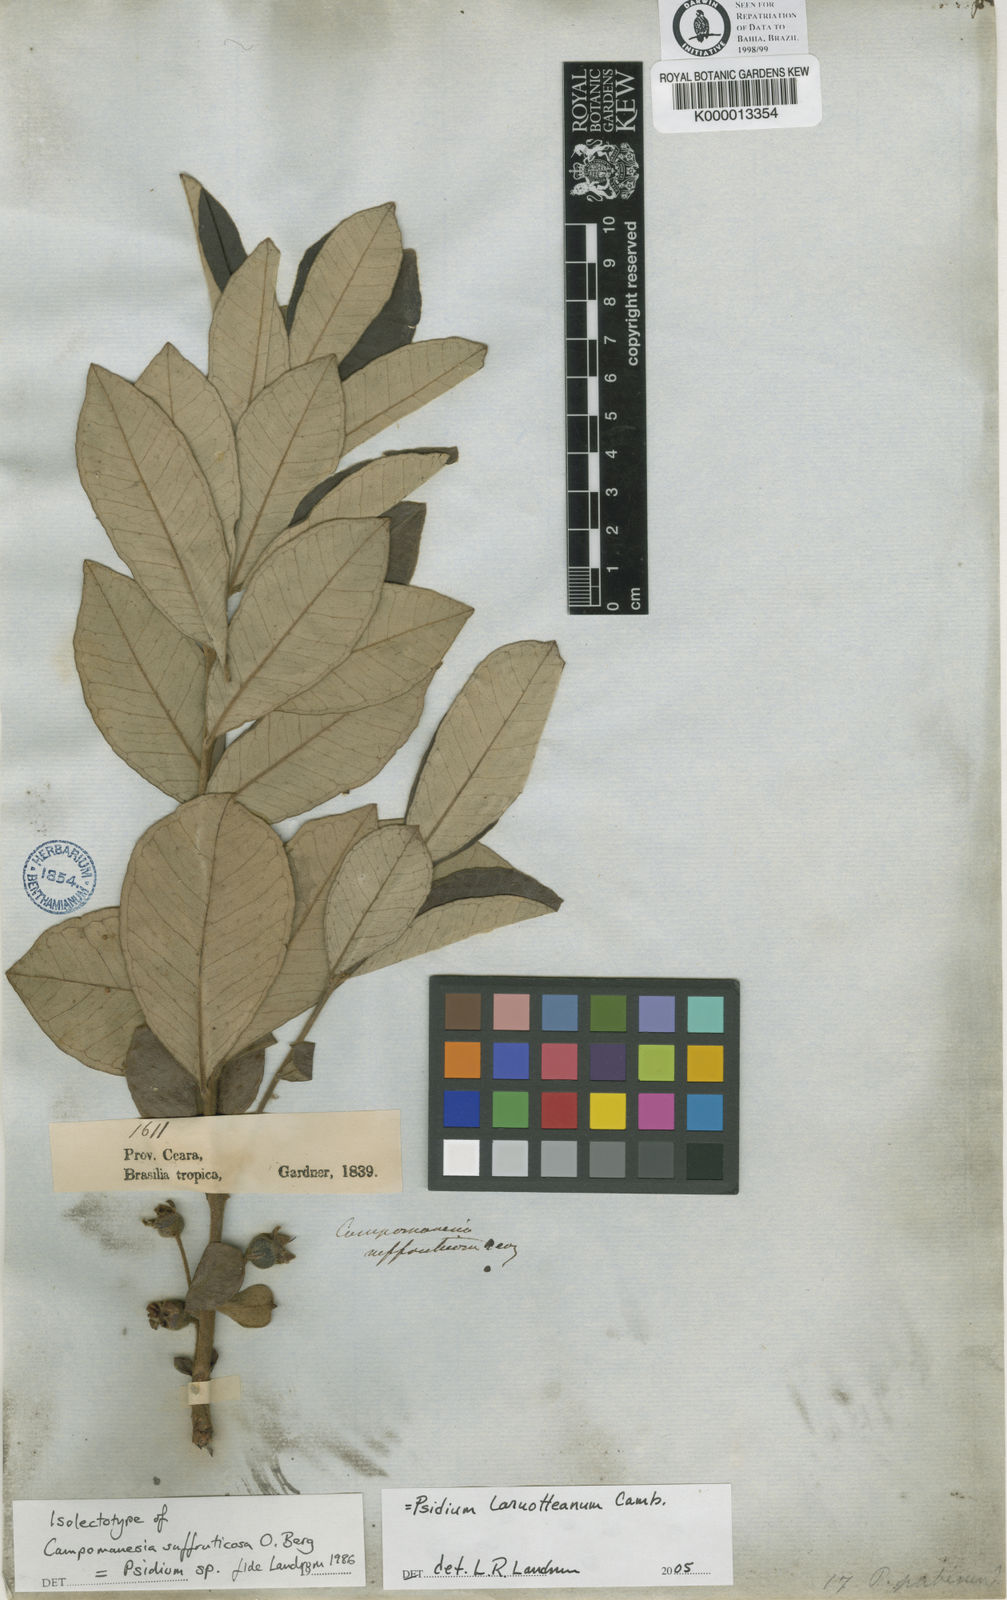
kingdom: Plantae
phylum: Tracheophyta
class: Magnoliopsida
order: Myrtales
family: Myrtaceae
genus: Psidium
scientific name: Psidium larueotteanum
